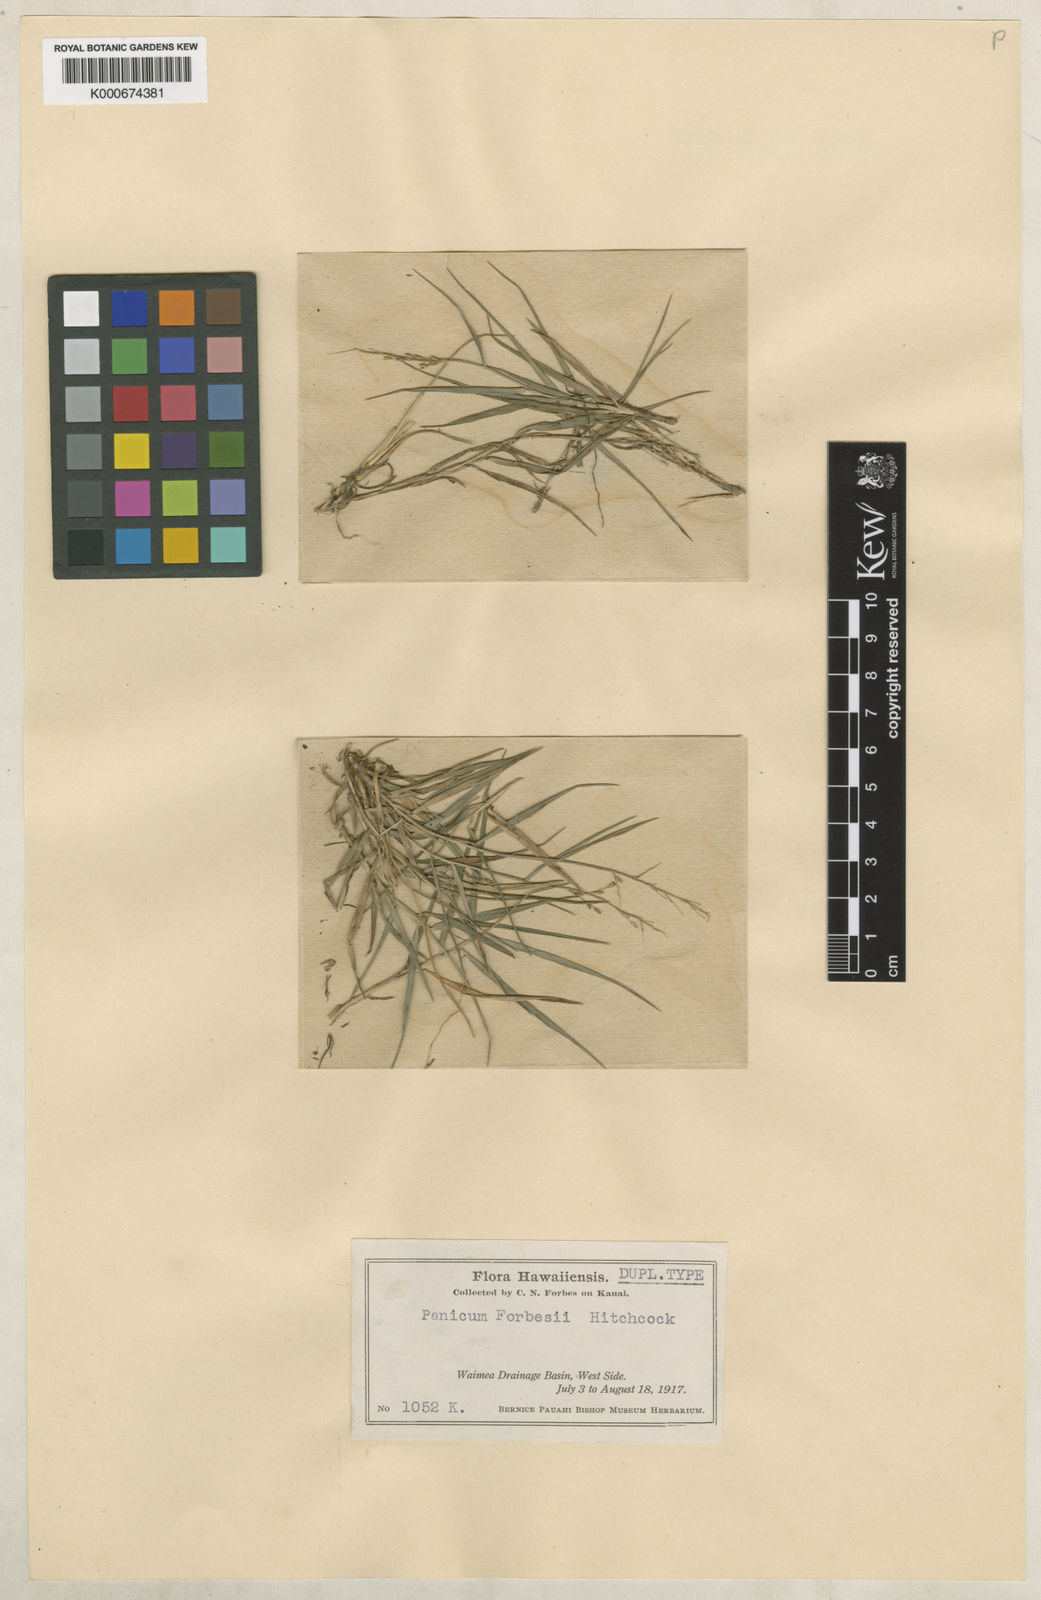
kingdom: Plantae
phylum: Tracheophyta
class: Liliopsida
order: Poales
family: Poaceae
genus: Dichanthelium
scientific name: Dichanthelium cynodon
